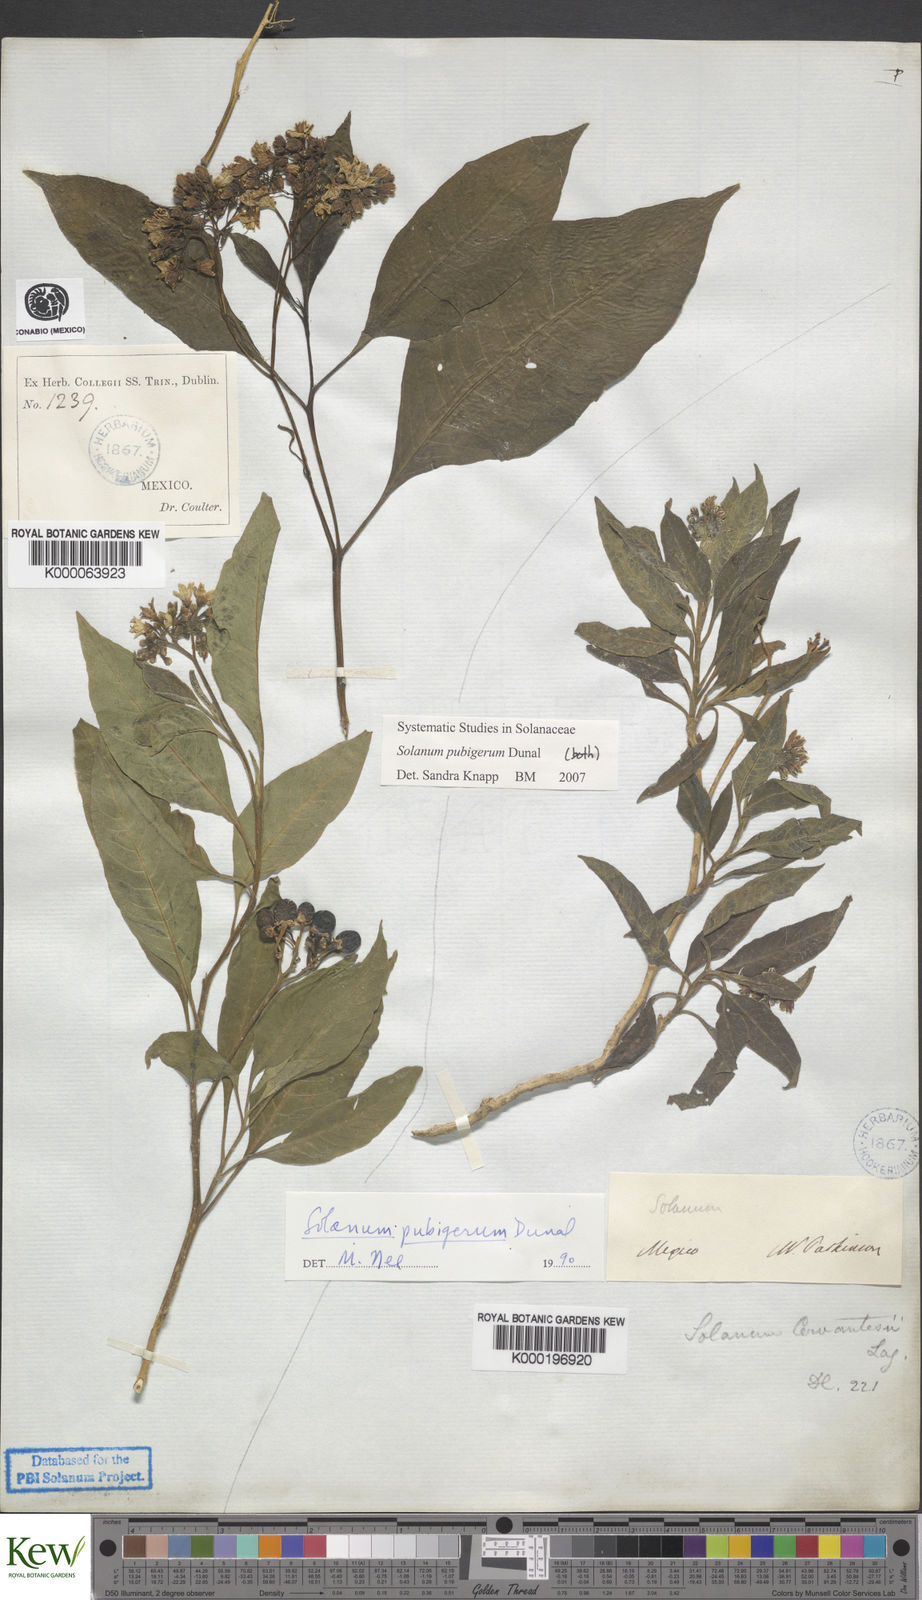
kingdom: Plantae
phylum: Tracheophyta
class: Magnoliopsida
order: Solanales
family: Solanaceae
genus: Solanum
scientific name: Solanum pubigerum
